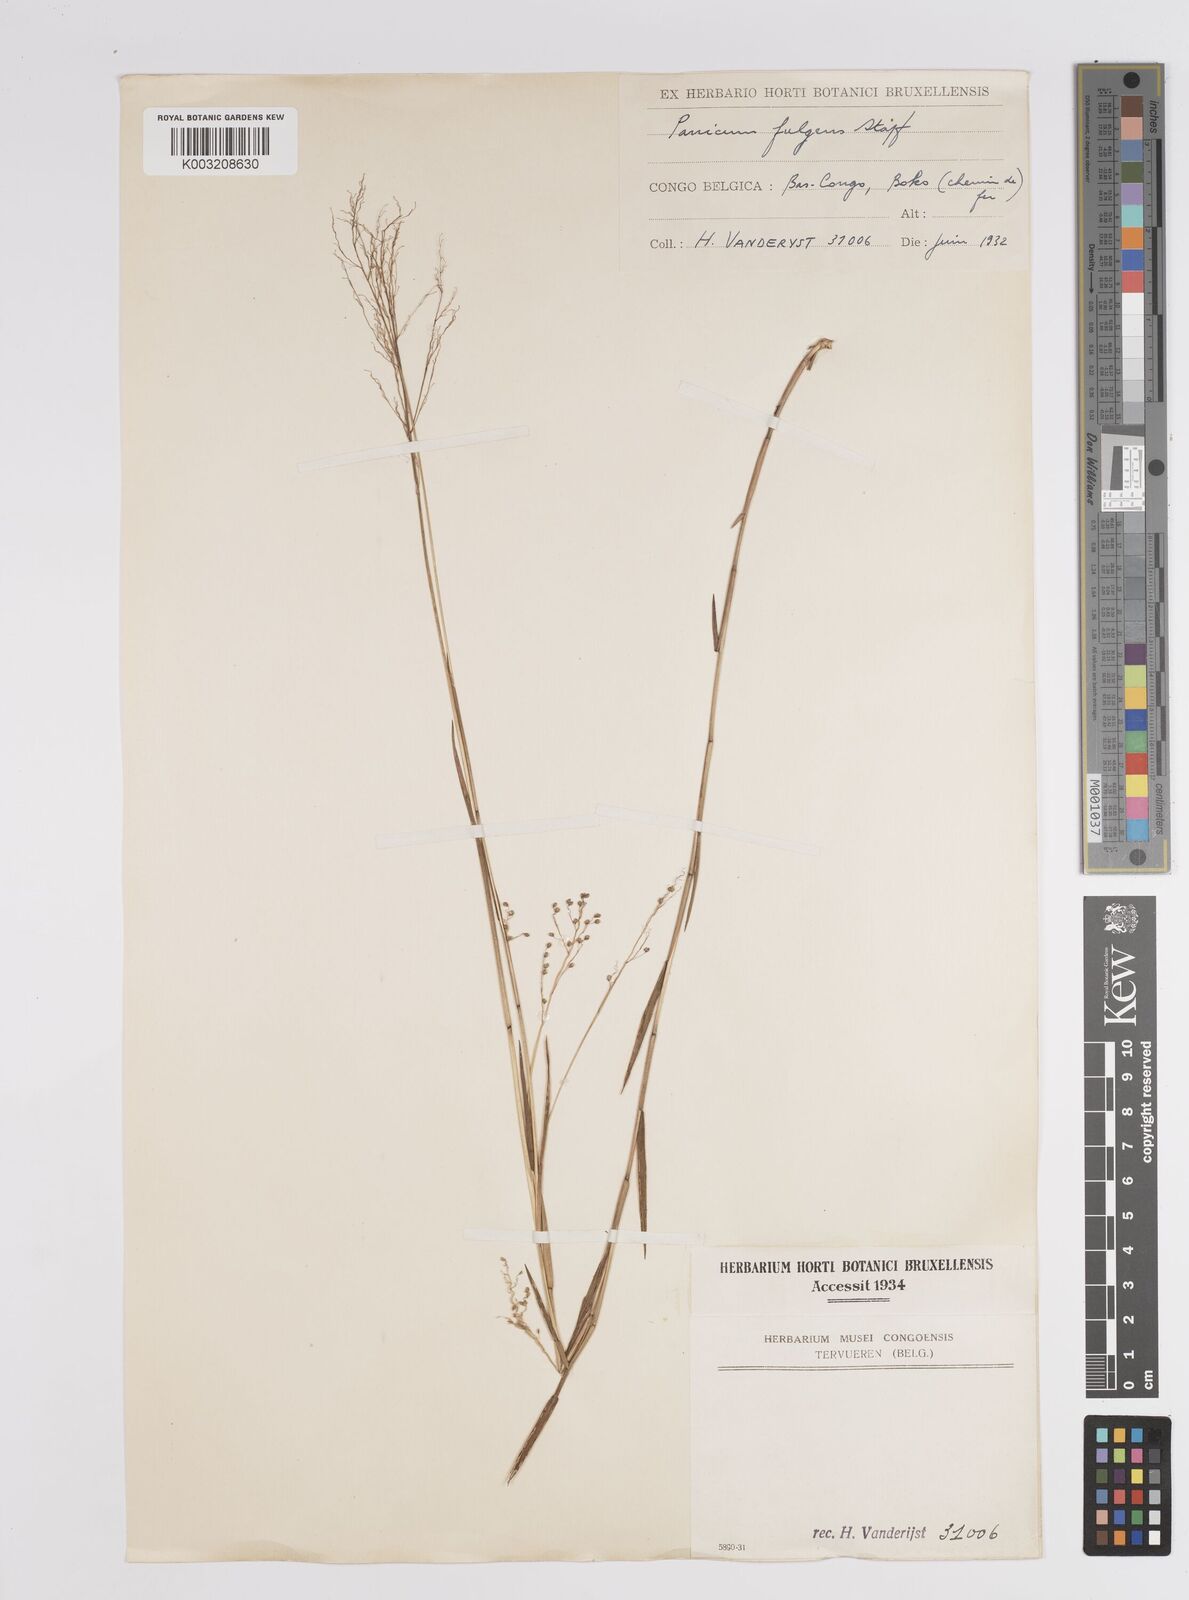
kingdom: Plantae
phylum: Tracheophyta
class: Liliopsida
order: Poales
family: Poaceae
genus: Trichanthecium
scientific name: Trichanthecium nervatum
